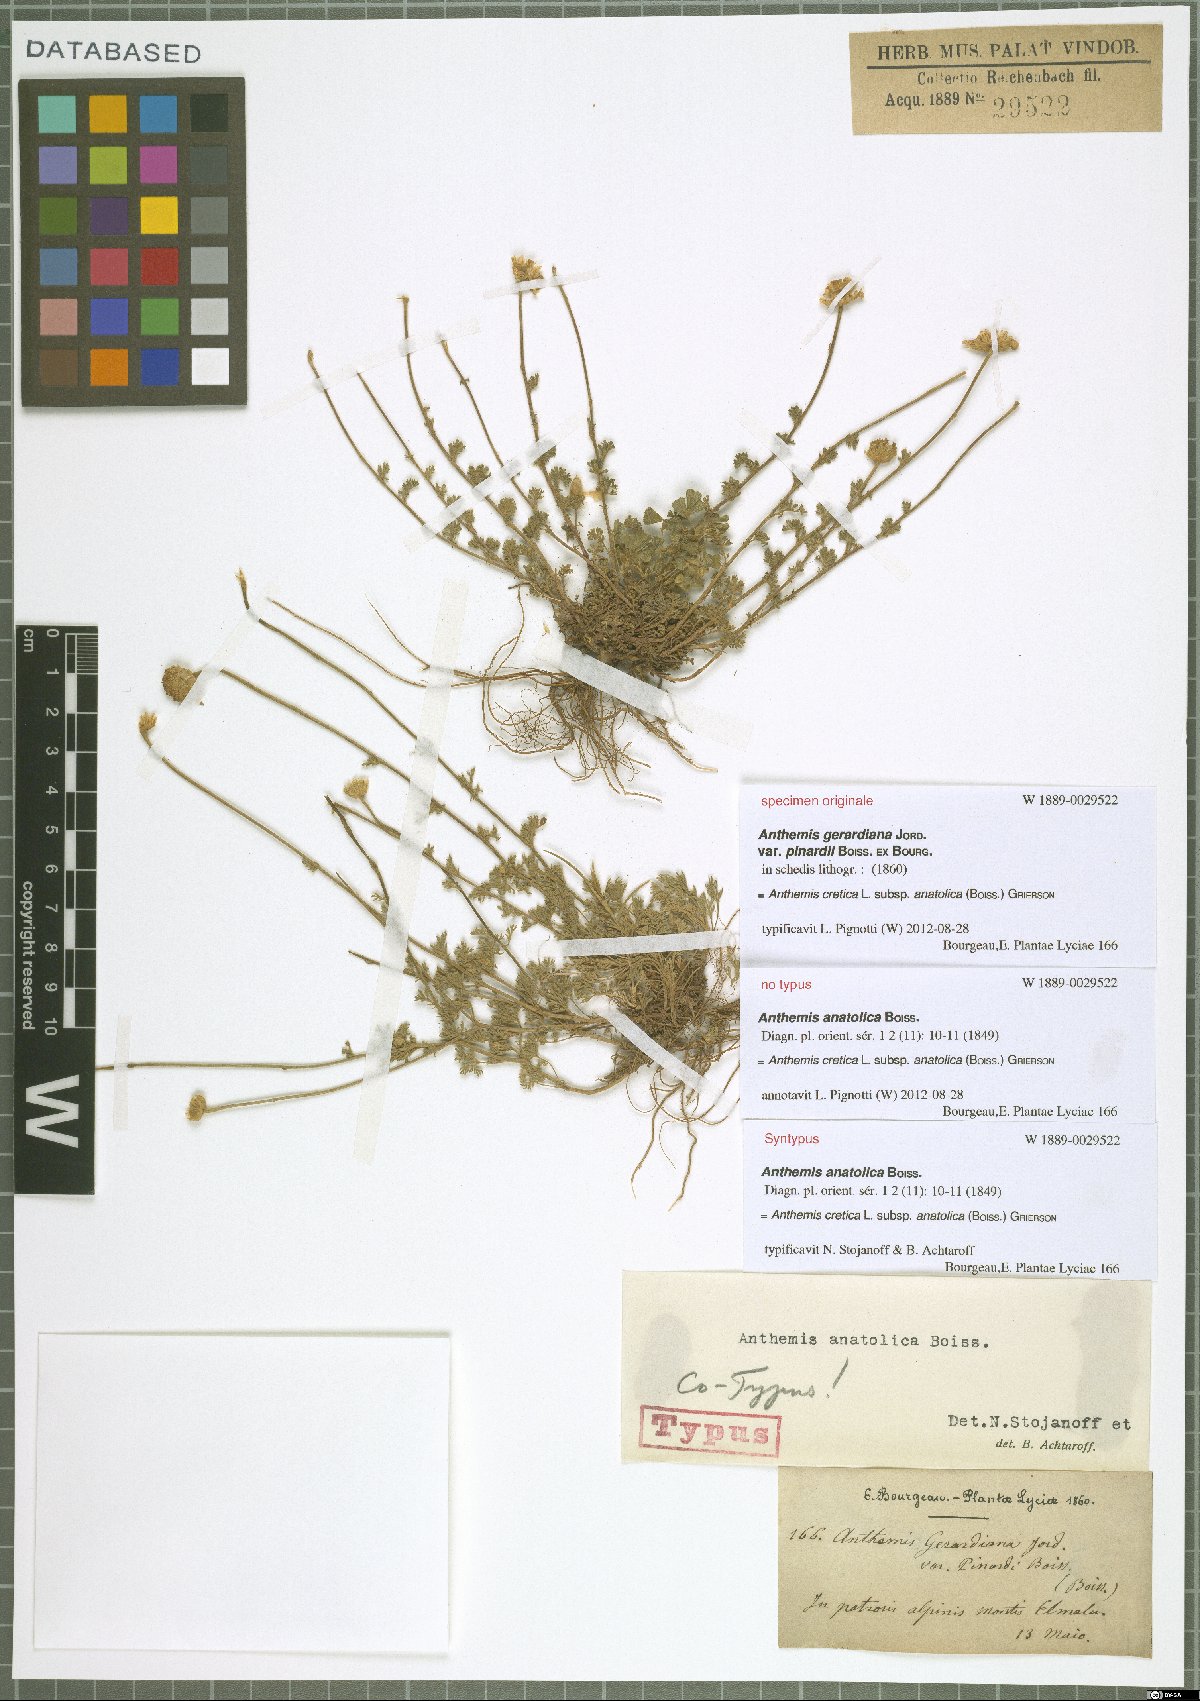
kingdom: Plantae
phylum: Tracheophyta
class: Magnoliopsida
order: Asterales
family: Asteraceae
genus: Anthemis
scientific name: Anthemis cretica
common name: Mountain dog-daisy
